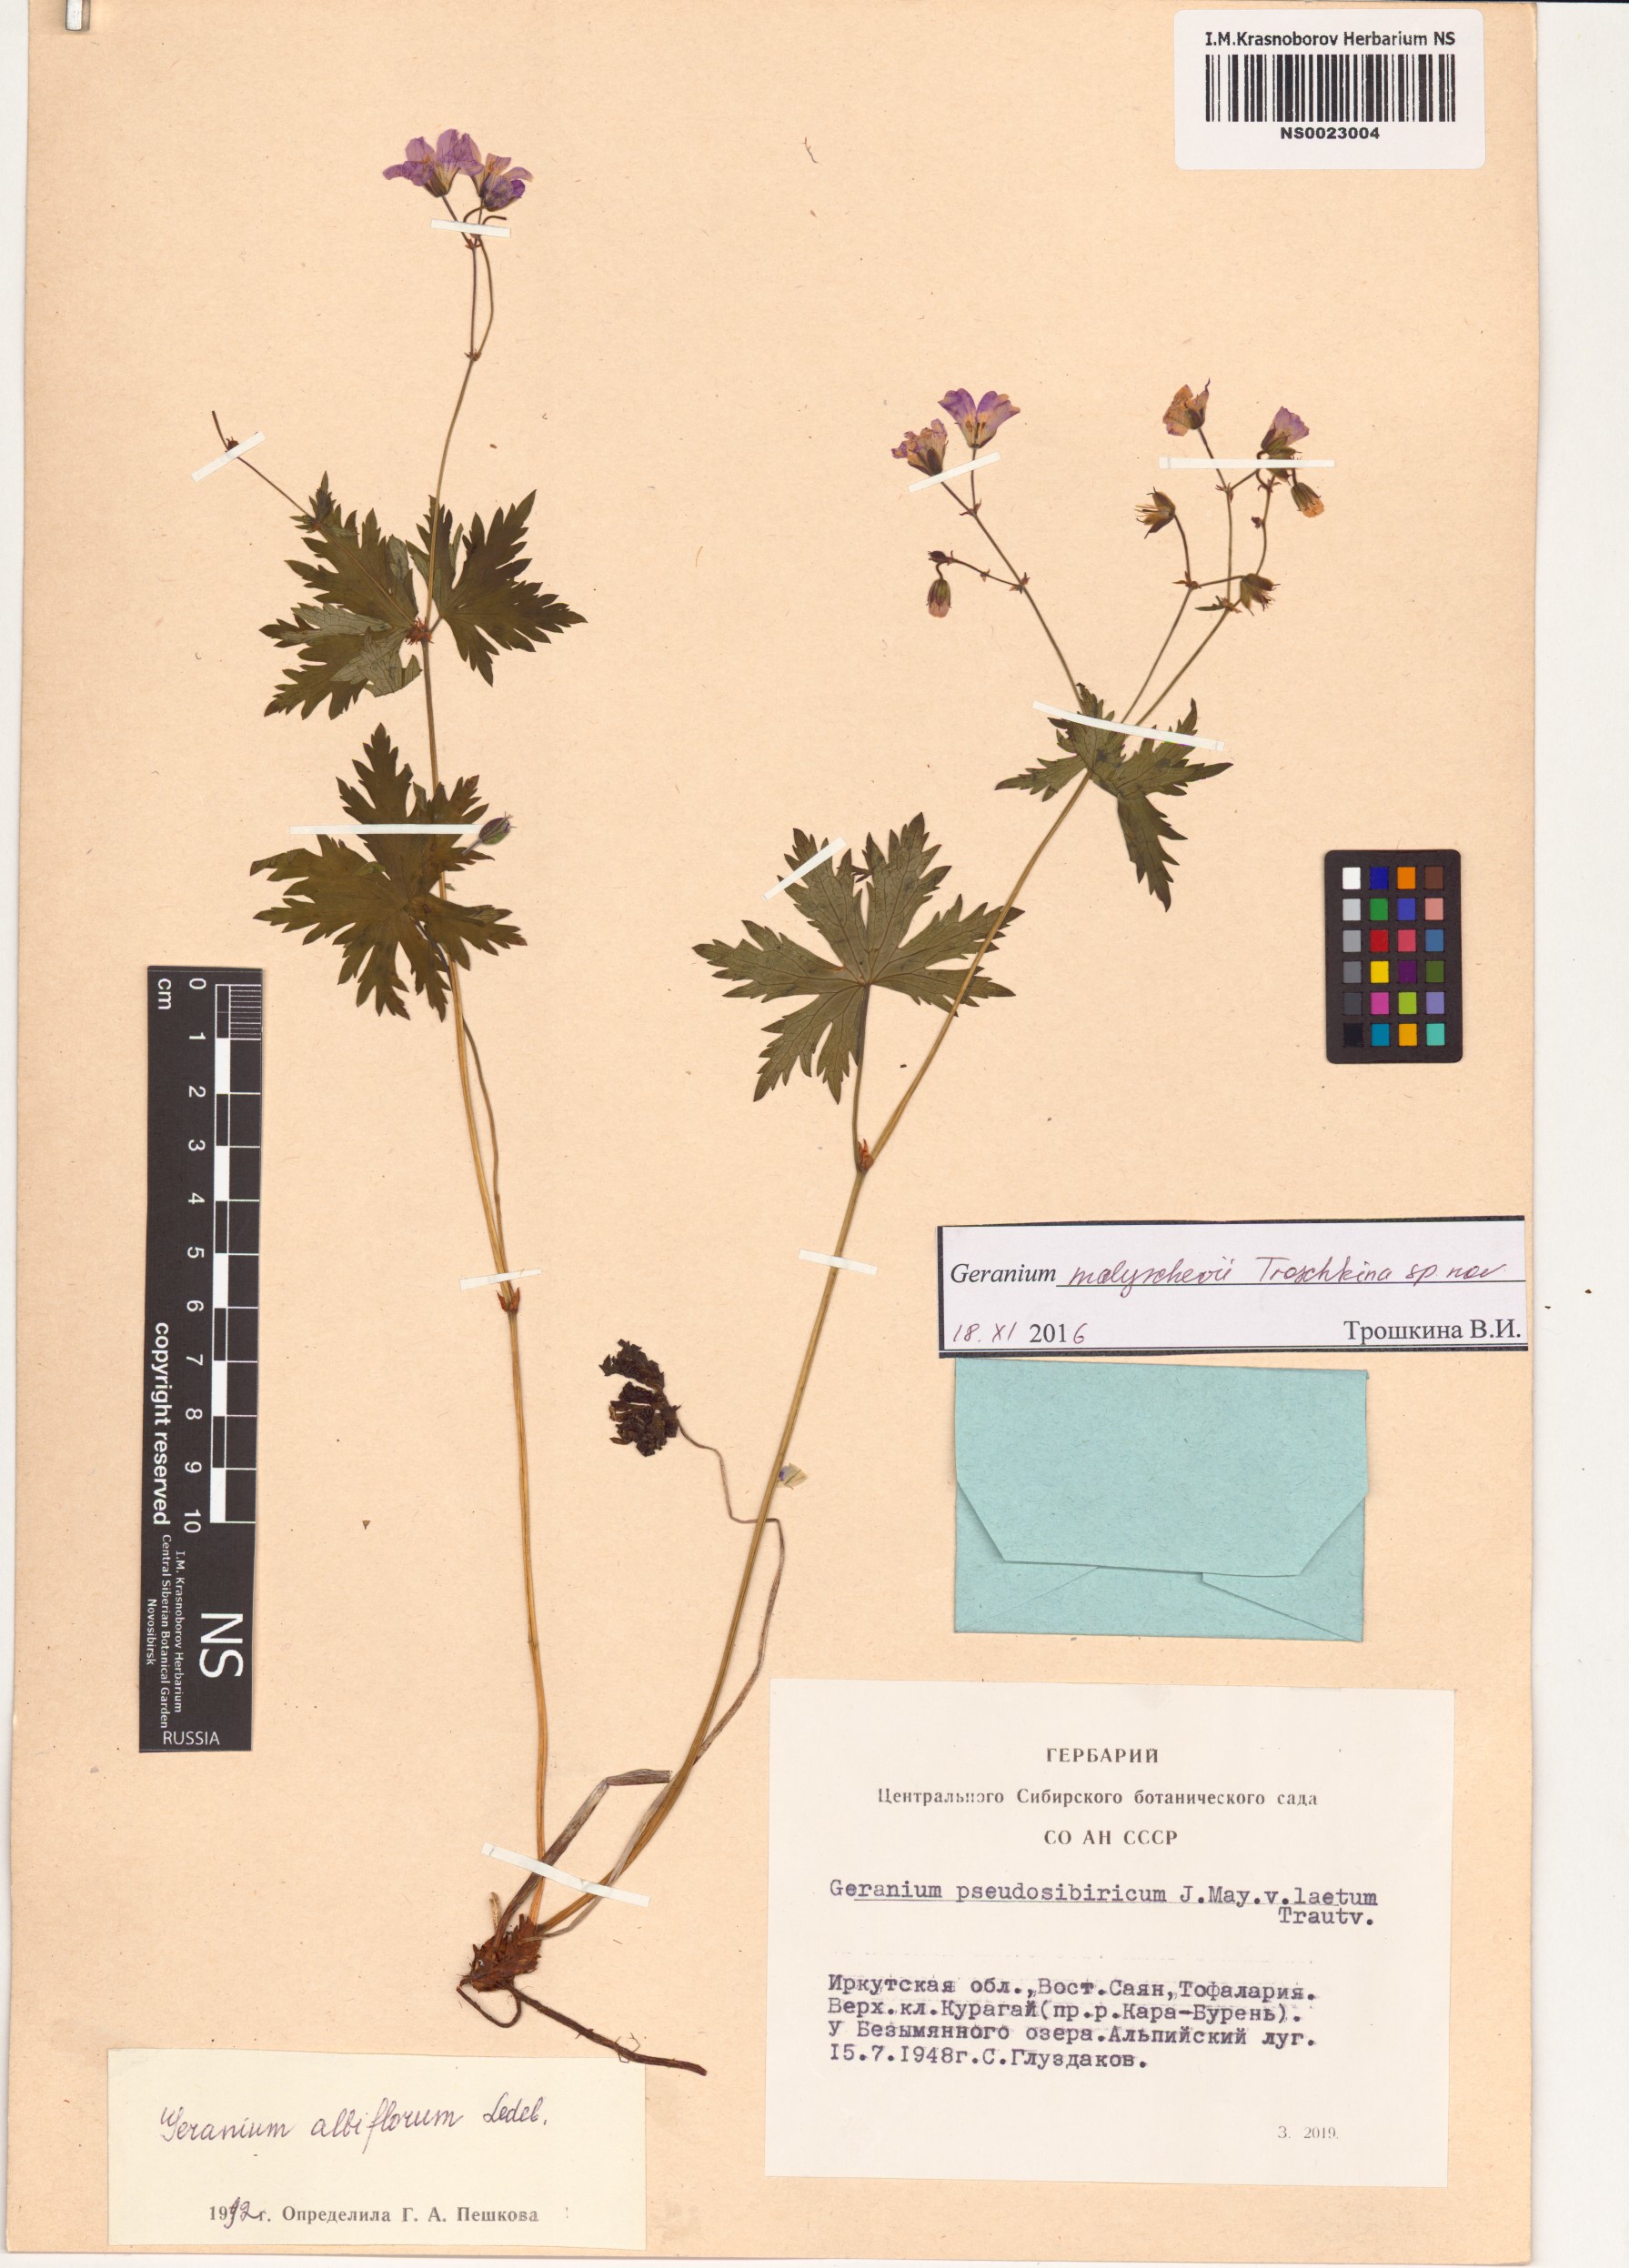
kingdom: Plantae
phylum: Tracheophyta
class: Magnoliopsida
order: Geraniales
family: Geraniaceae
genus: Geranium
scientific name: Geranium malyschevii
